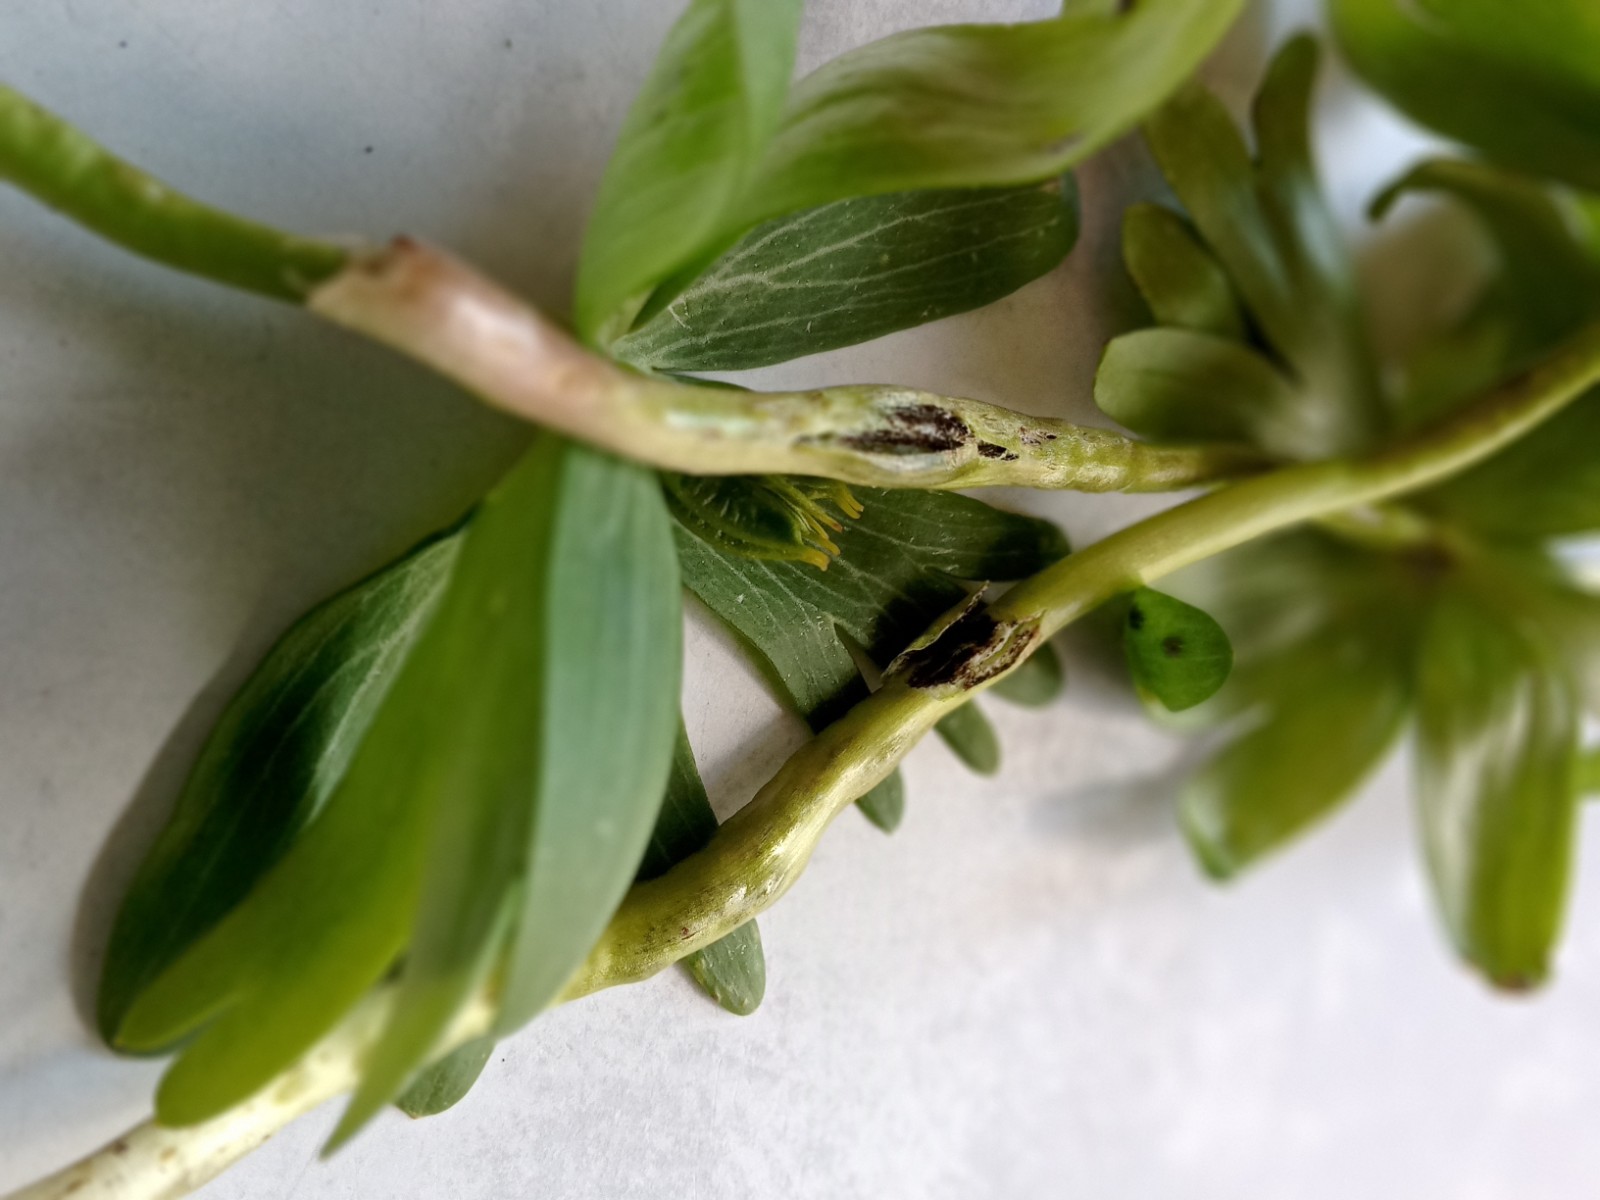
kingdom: Fungi
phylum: Basidiomycota
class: Ustilaginomycetes
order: Urocystidales
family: Urocystidaceae
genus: Urocystis
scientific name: Urocystis eranthidis
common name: erantis-brand
